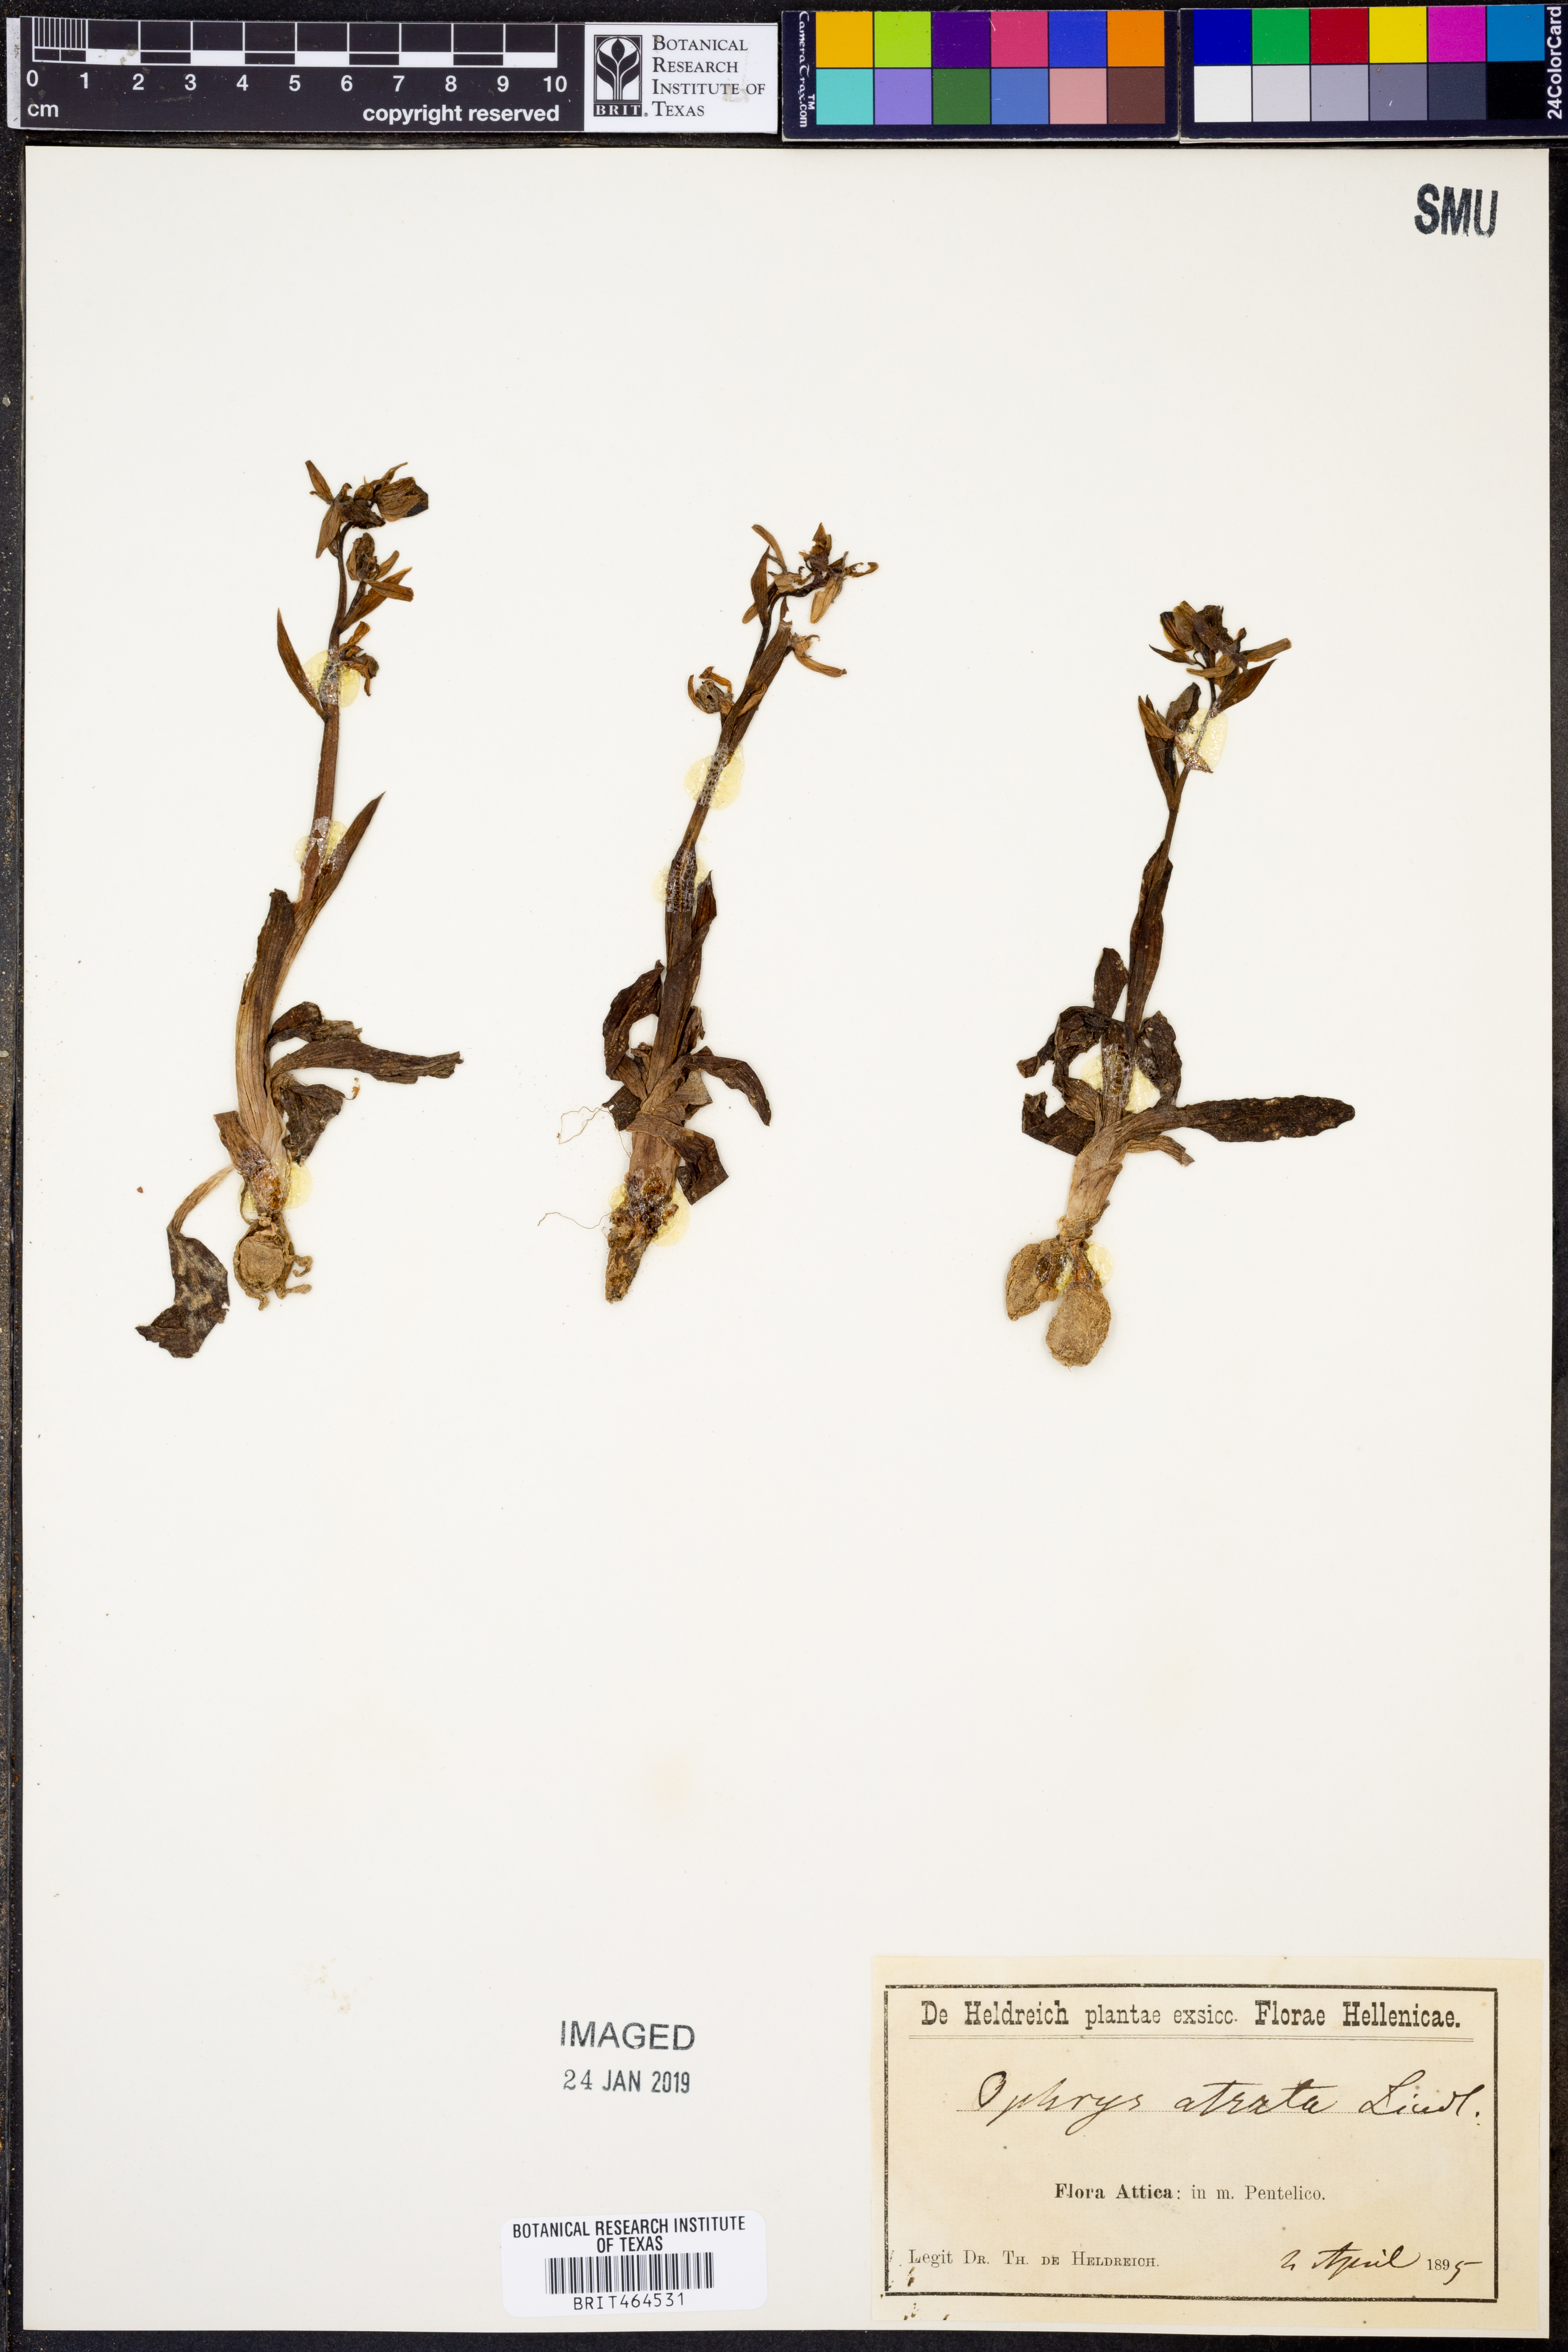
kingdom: Plantae
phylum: Tracheophyta
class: Liliopsida
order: Asparagales
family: Orchidaceae
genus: Ceratandra
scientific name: Ceratandra atrata
